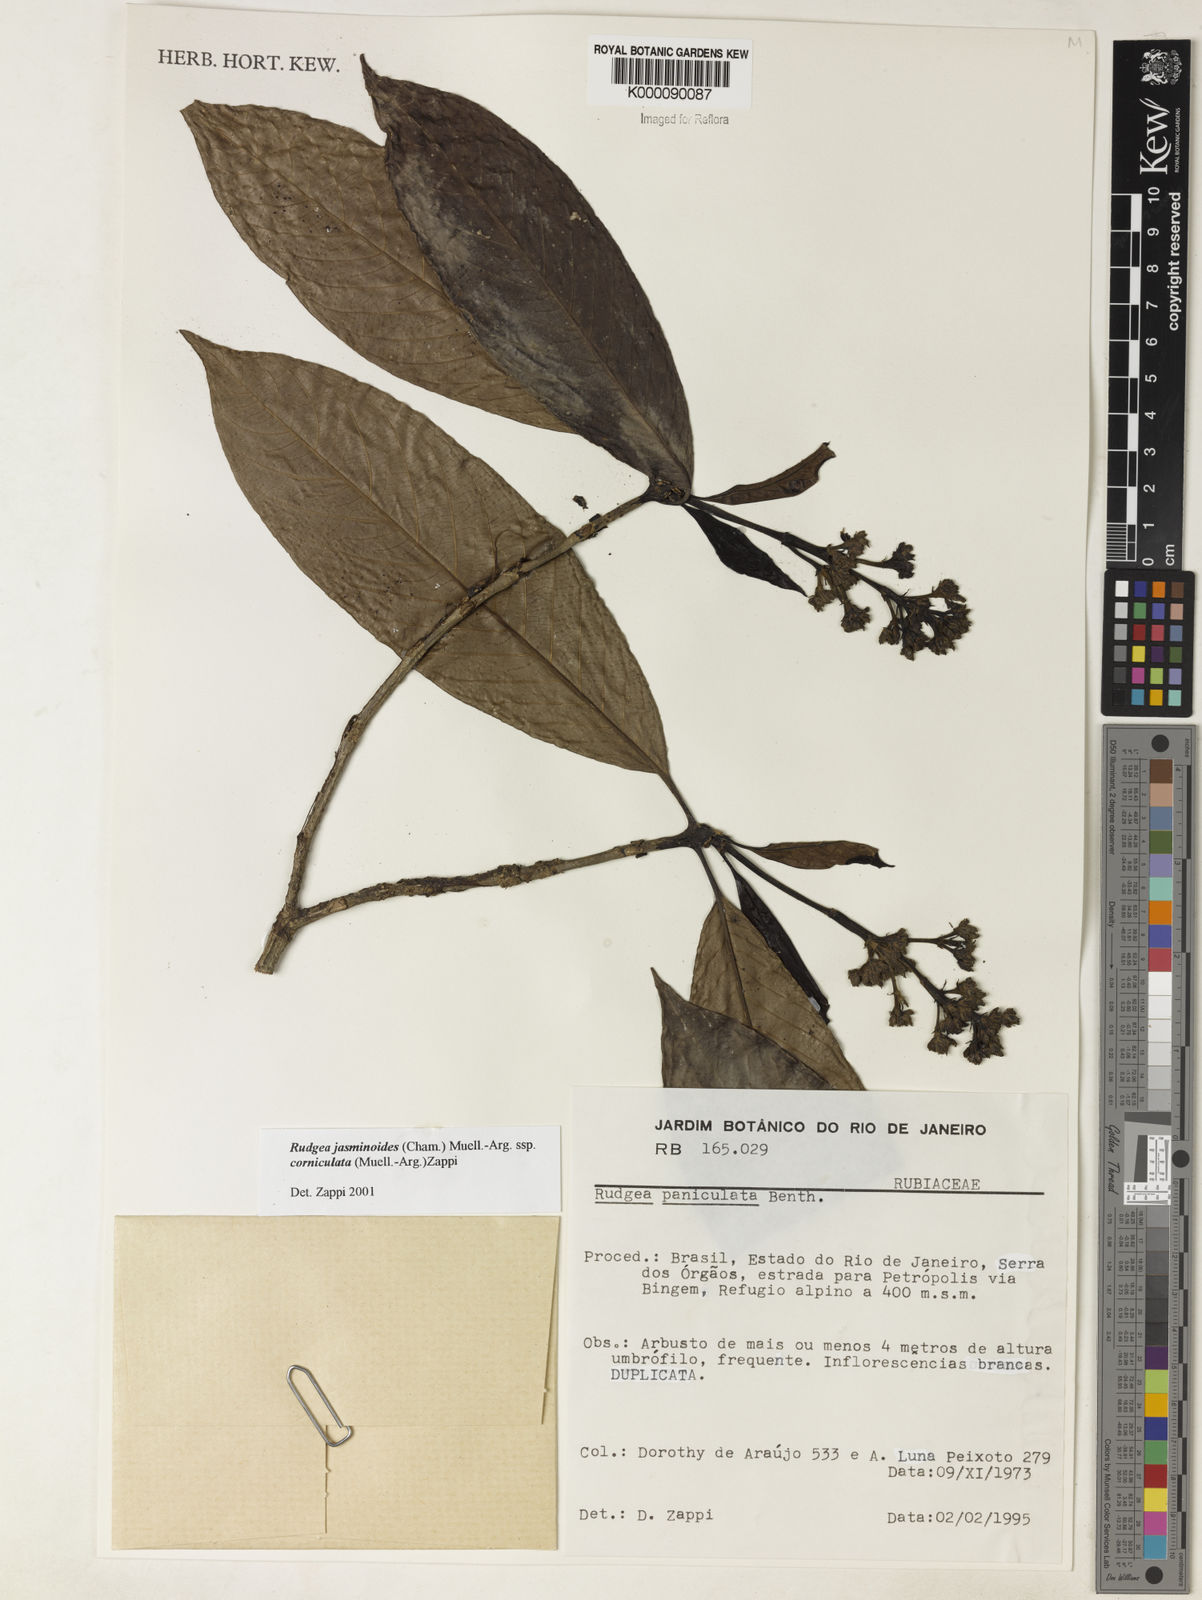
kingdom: Plantae
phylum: Tracheophyta
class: Magnoliopsida
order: Gentianales
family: Rubiaceae
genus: Rudgea
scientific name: Rudgea jasminoides
